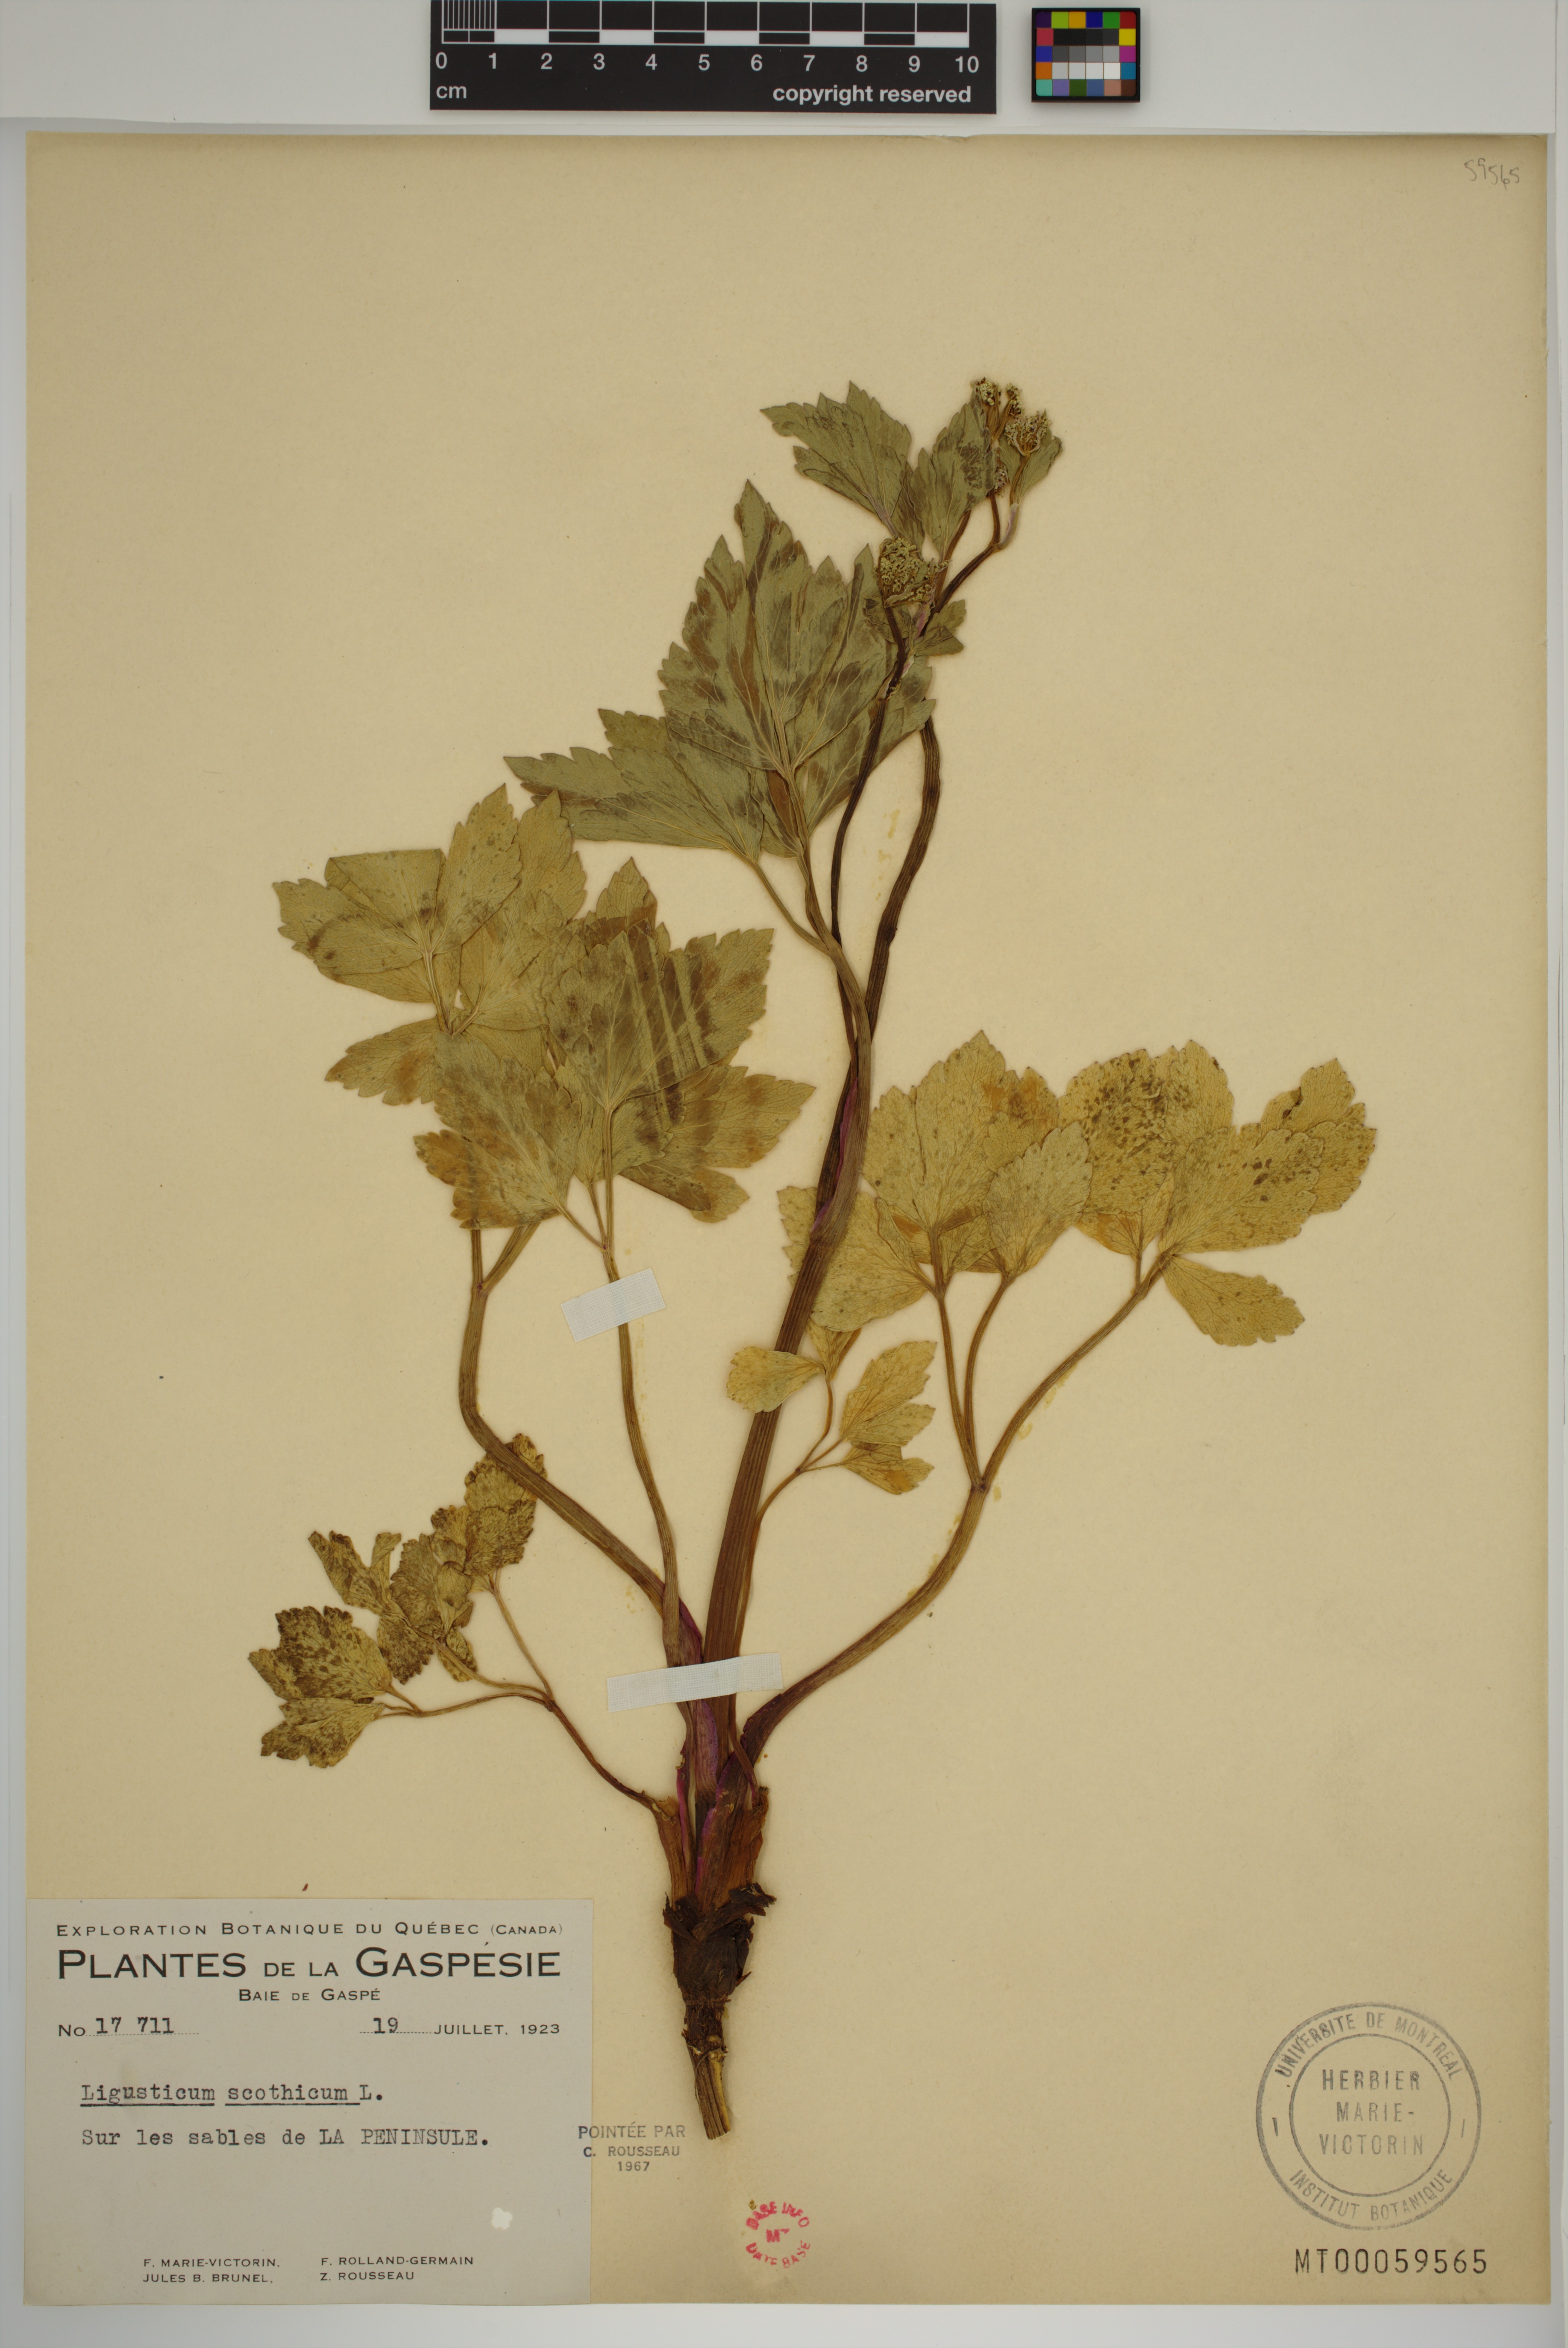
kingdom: Plantae
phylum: Tracheophyta
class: Magnoliopsida
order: Apiales
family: Apiaceae
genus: Ligusticum
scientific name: Ligusticum scothicum
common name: Beach lovage
